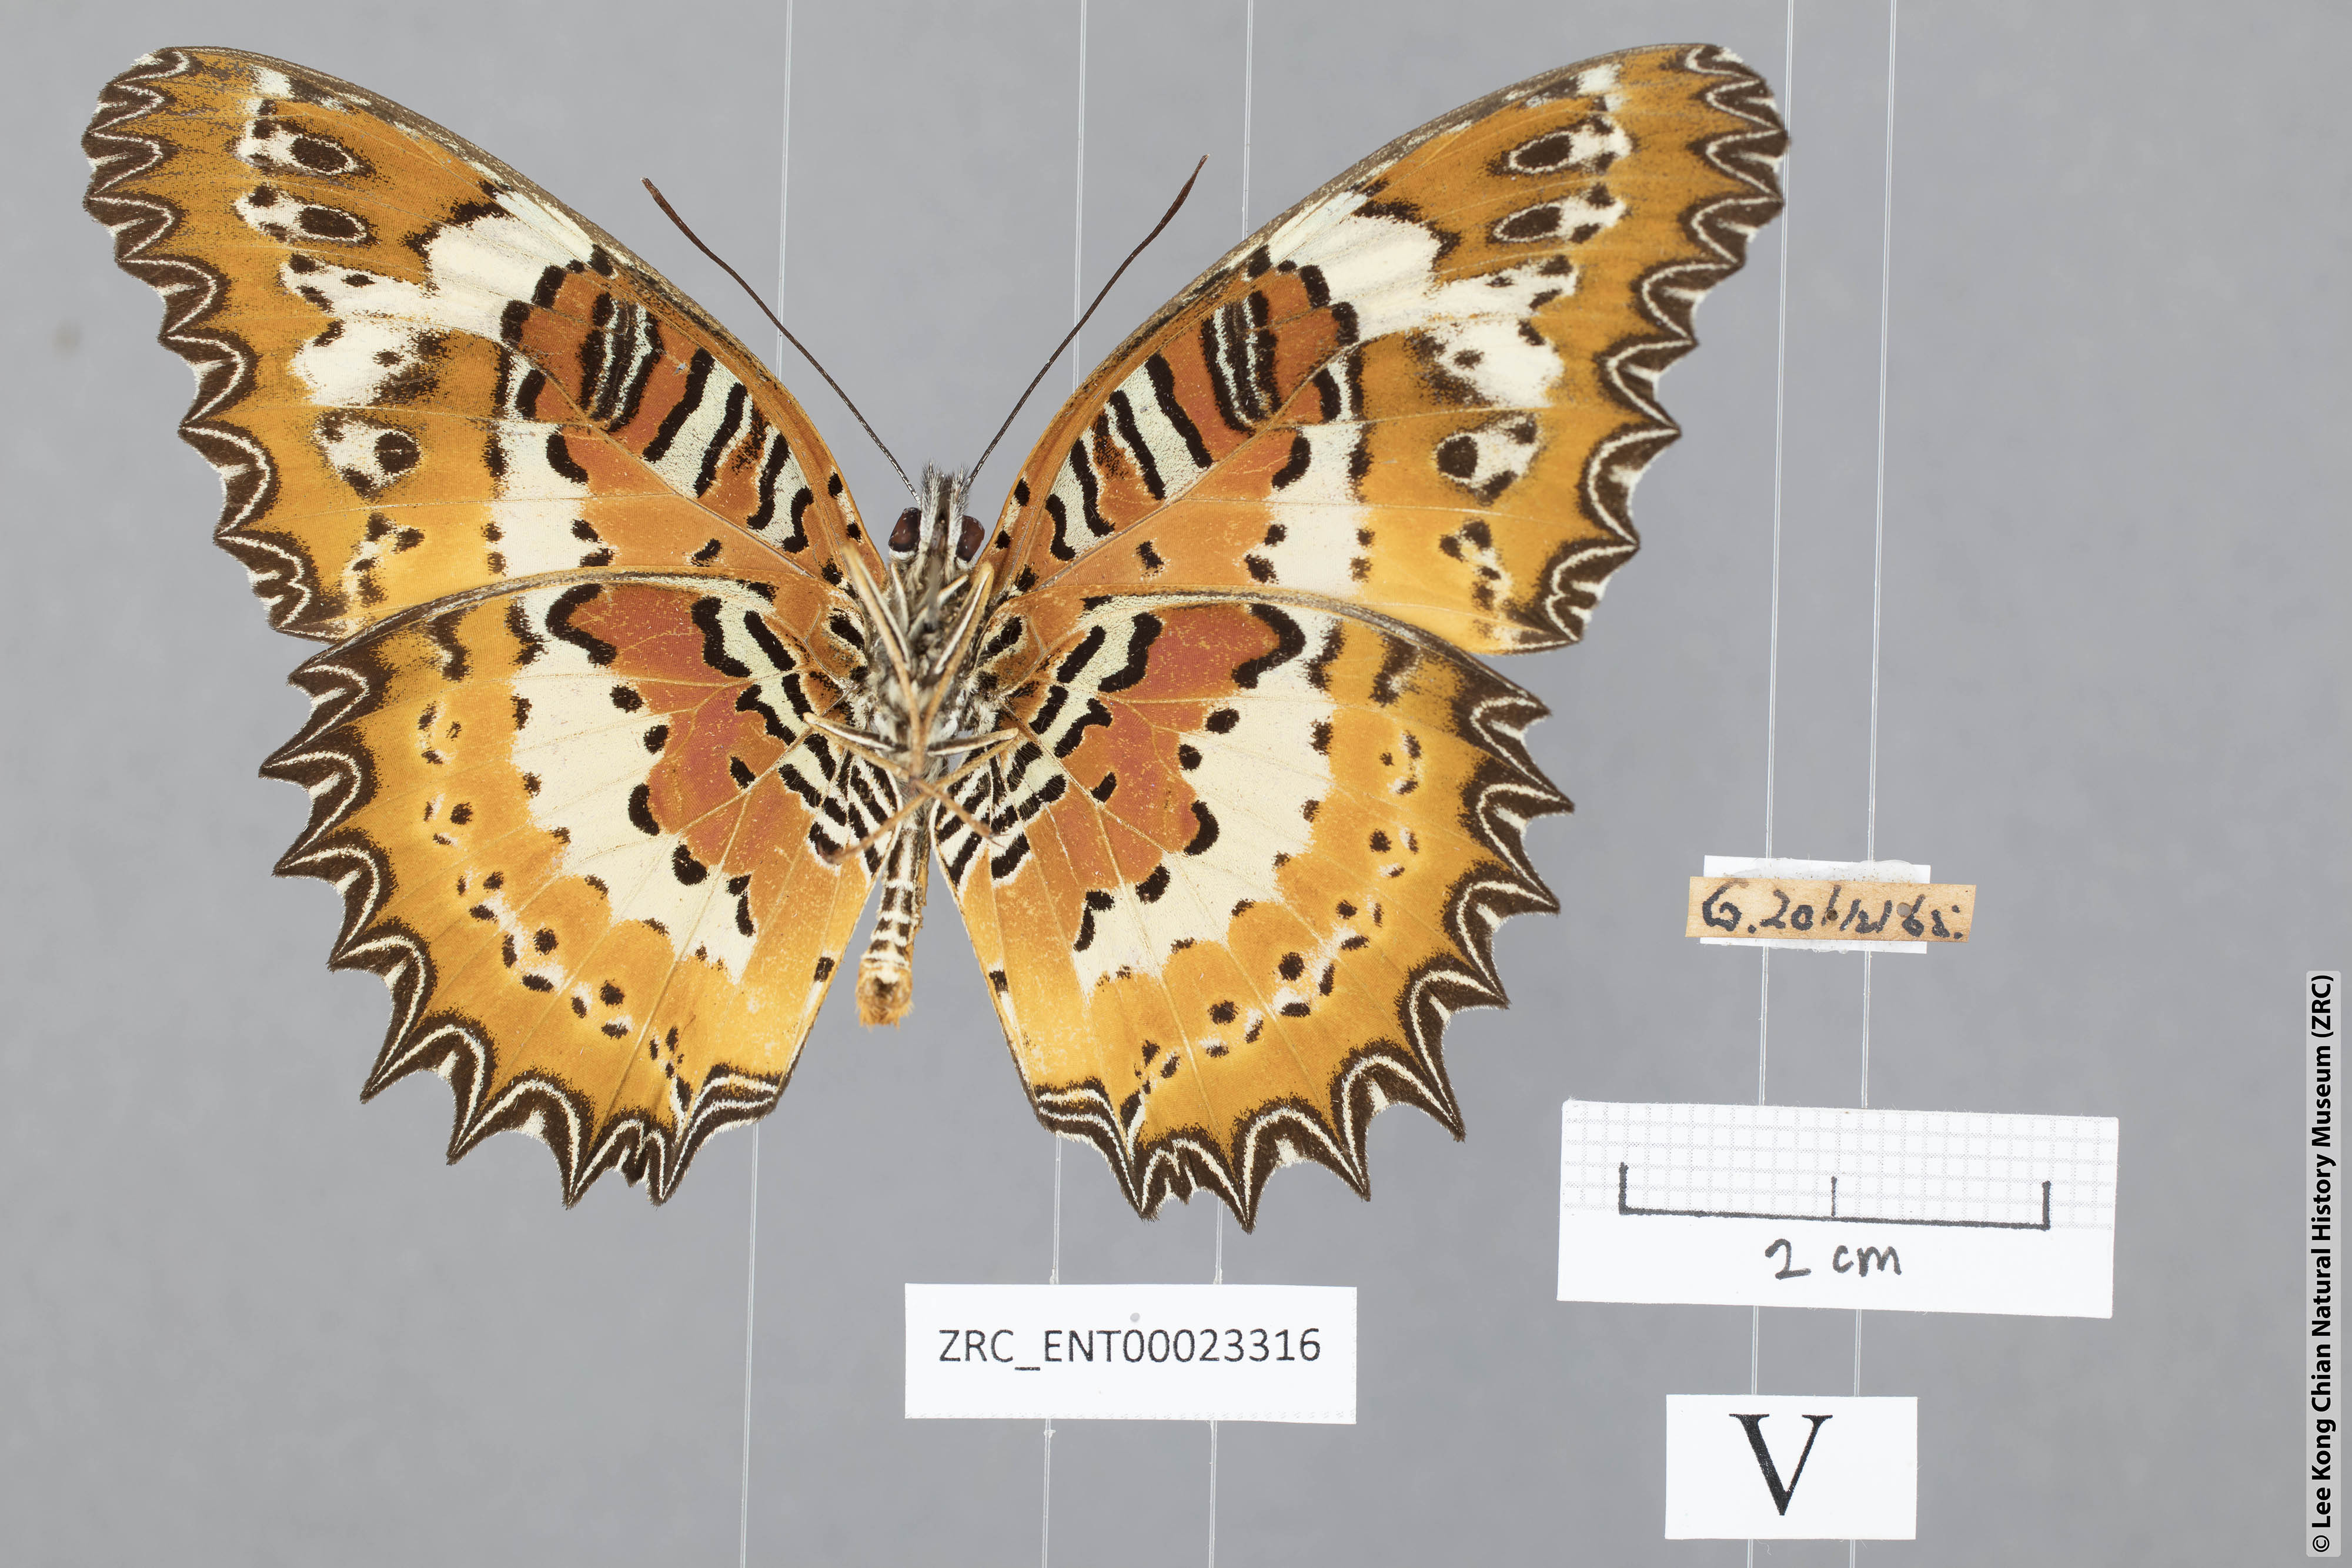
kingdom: Animalia
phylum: Arthropoda
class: Insecta
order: Lepidoptera
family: Nymphalidae
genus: Cethosia
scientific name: Cethosia penthesilea
